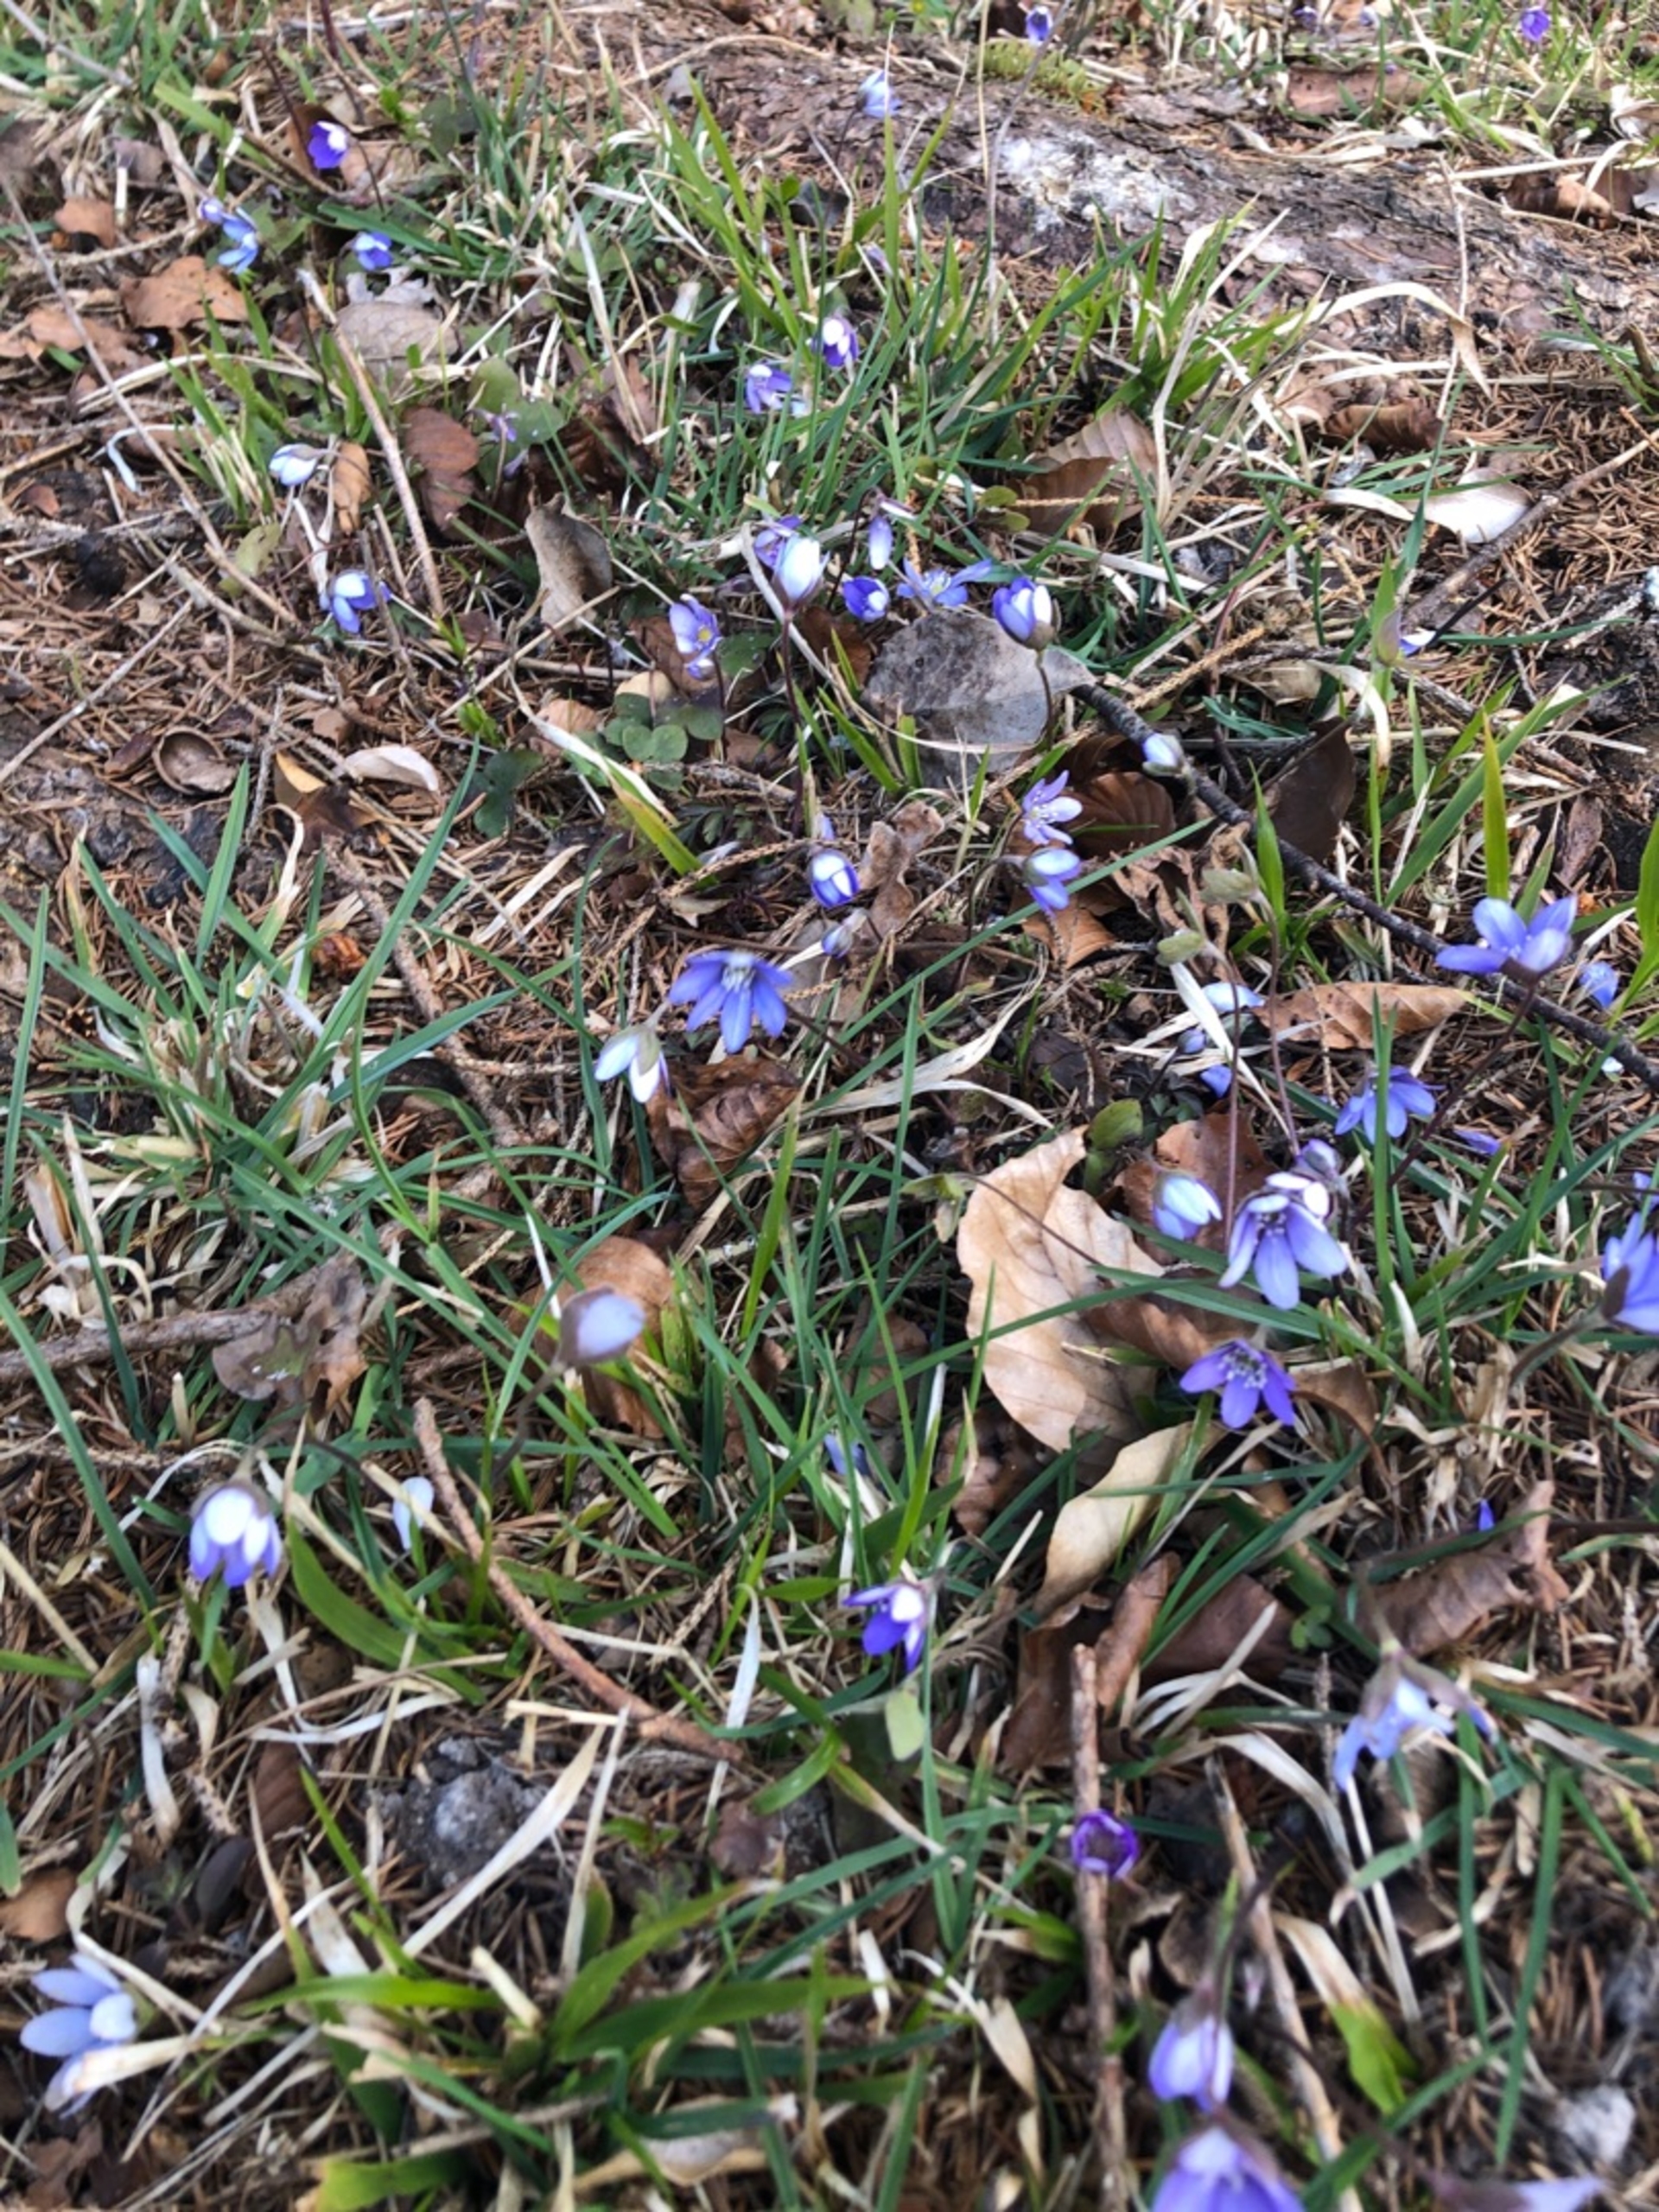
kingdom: Plantae
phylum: Tracheophyta
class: Magnoliopsida
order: Ranunculales
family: Ranunculaceae
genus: Hepatica
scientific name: Hepatica nobilis
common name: Blå anemone
